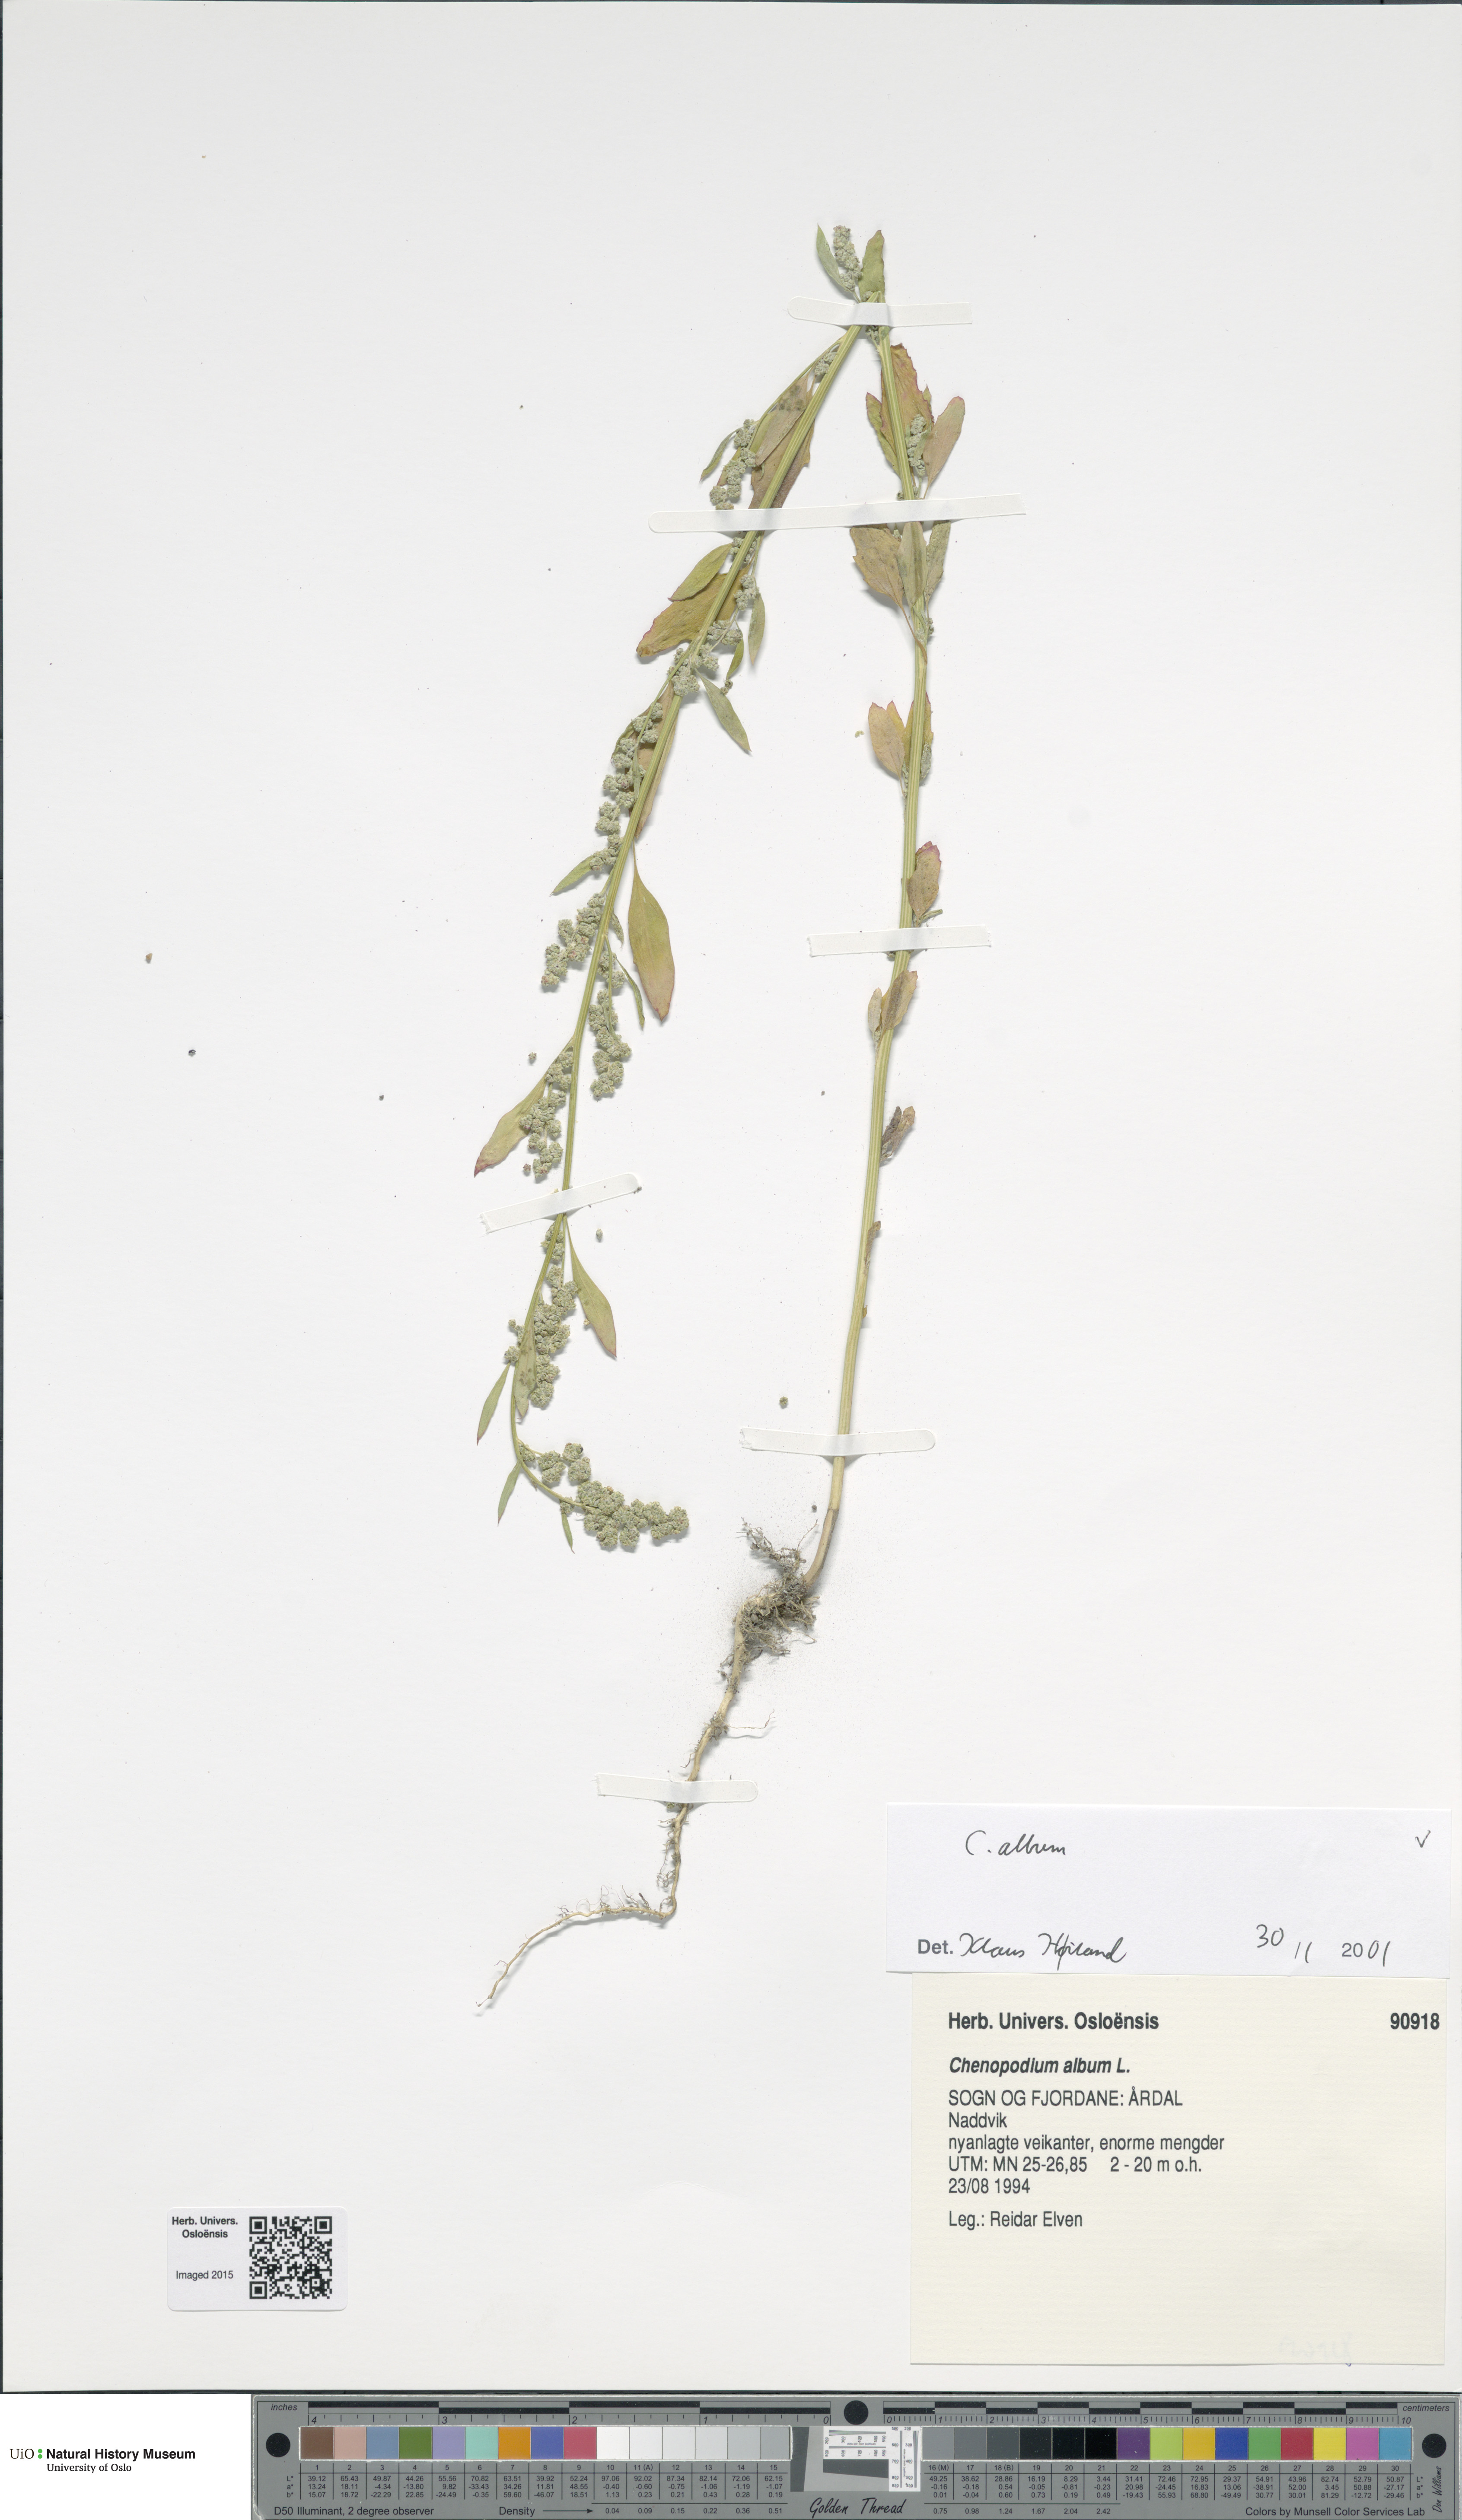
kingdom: Plantae
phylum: Tracheophyta
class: Magnoliopsida
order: Caryophyllales
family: Amaranthaceae
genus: Chenopodium
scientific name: Chenopodium album
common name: Fat-hen
